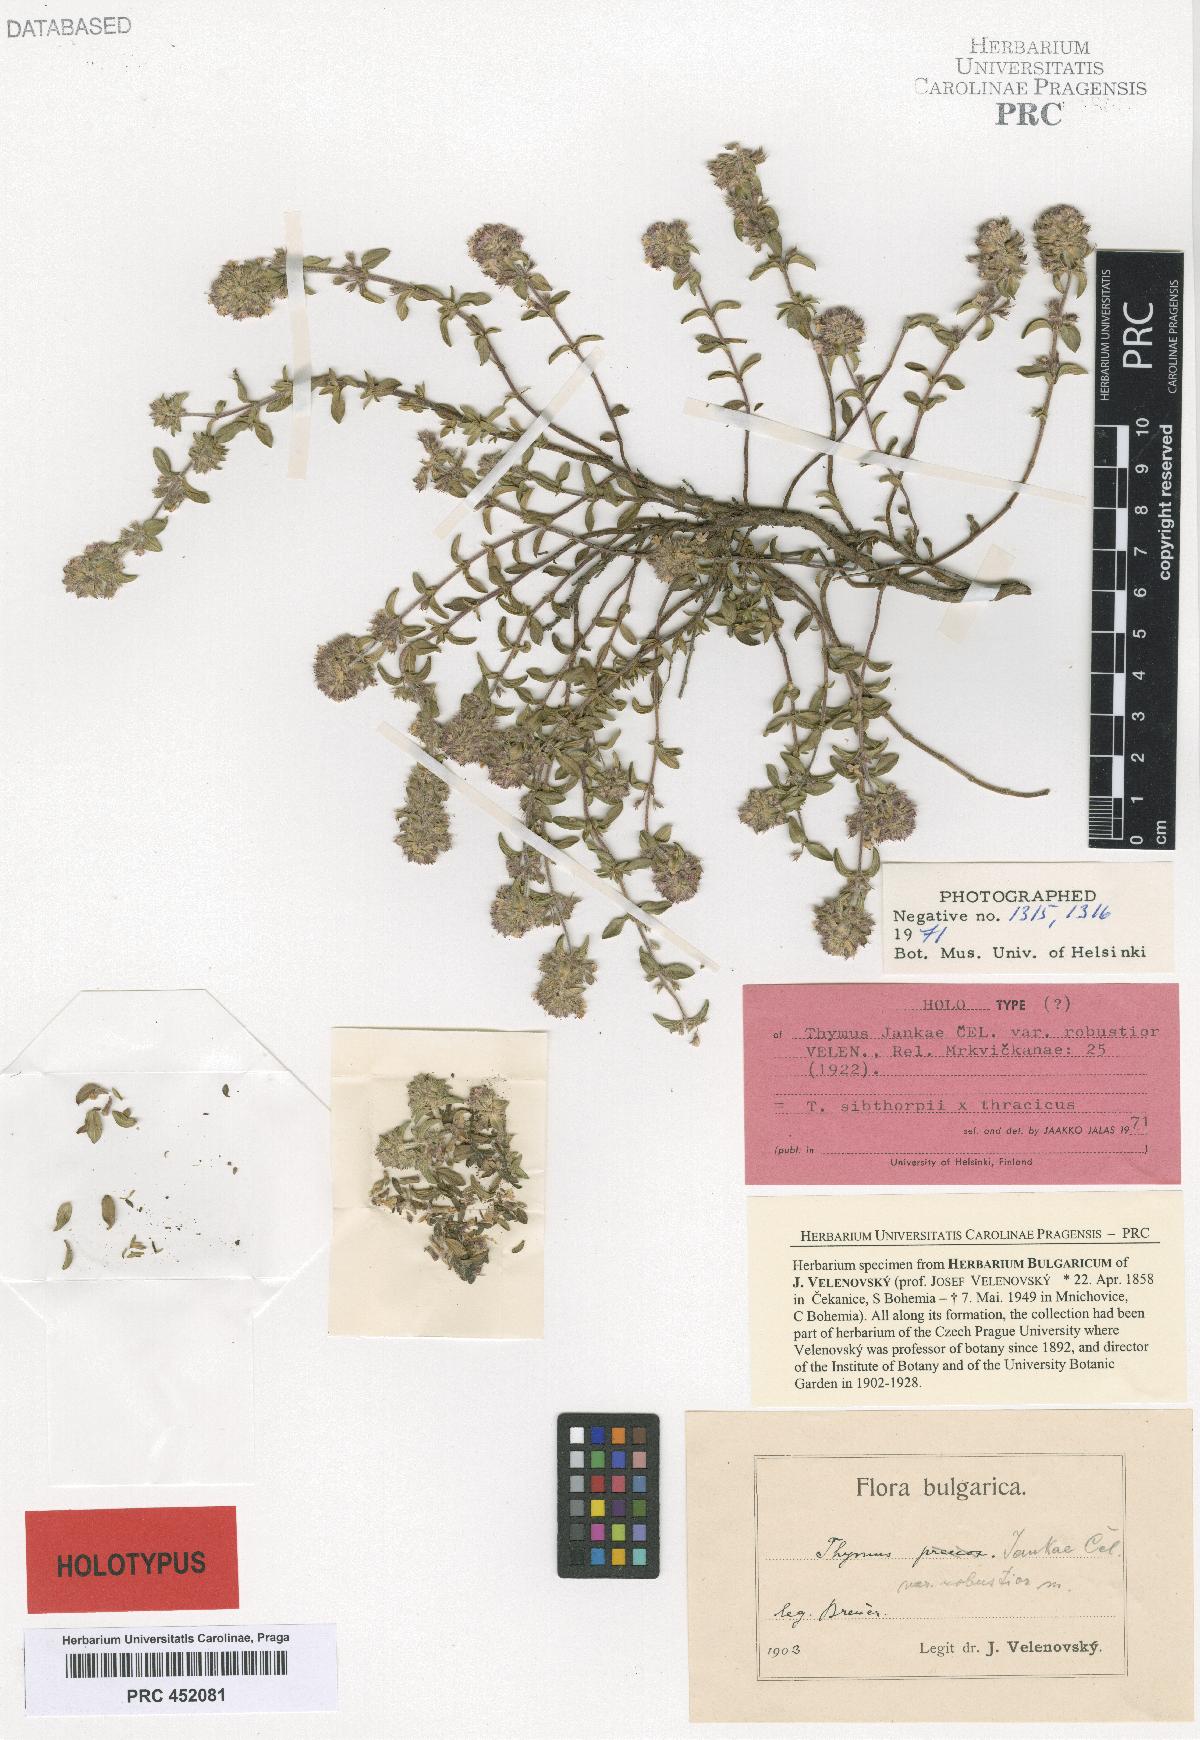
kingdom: Plantae
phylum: Tracheophyta
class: Magnoliopsida
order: Lamiales
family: Lamiaceae
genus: Thymus
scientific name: Thymus jankae
